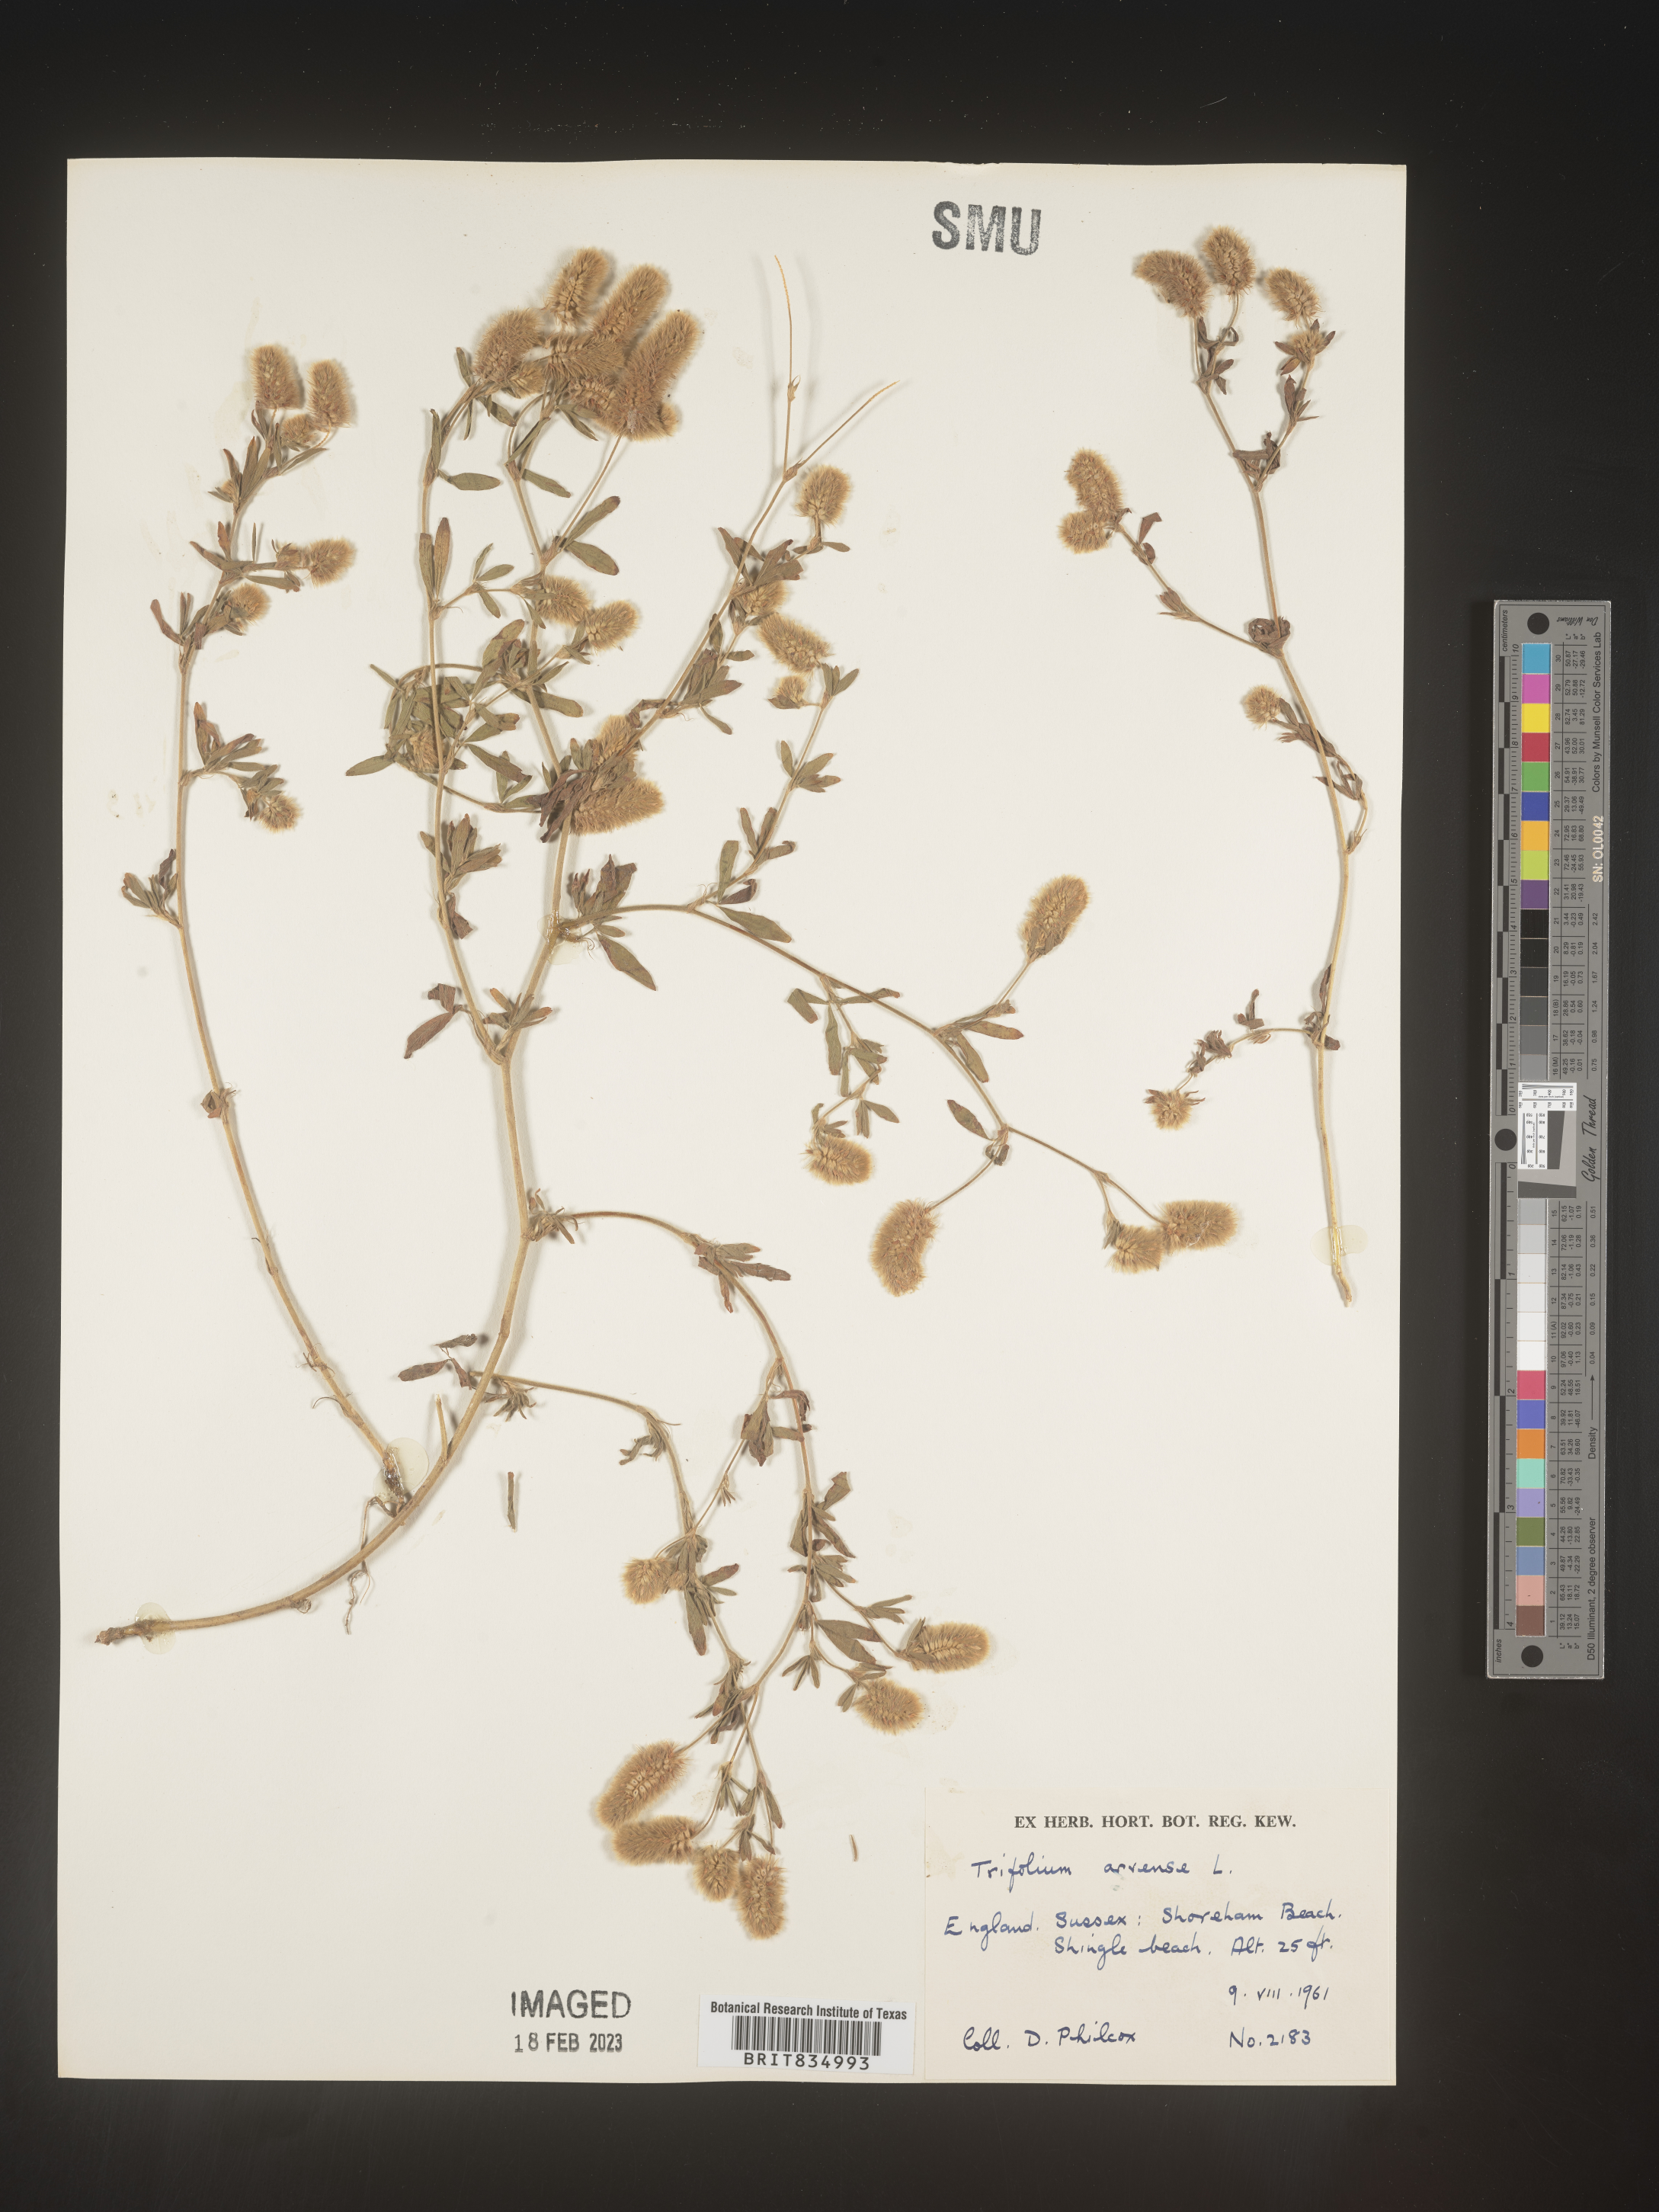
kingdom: Plantae
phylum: Tracheophyta
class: Magnoliopsida
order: Fabales
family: Fabaceae
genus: Trifolium
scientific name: Trifolium
